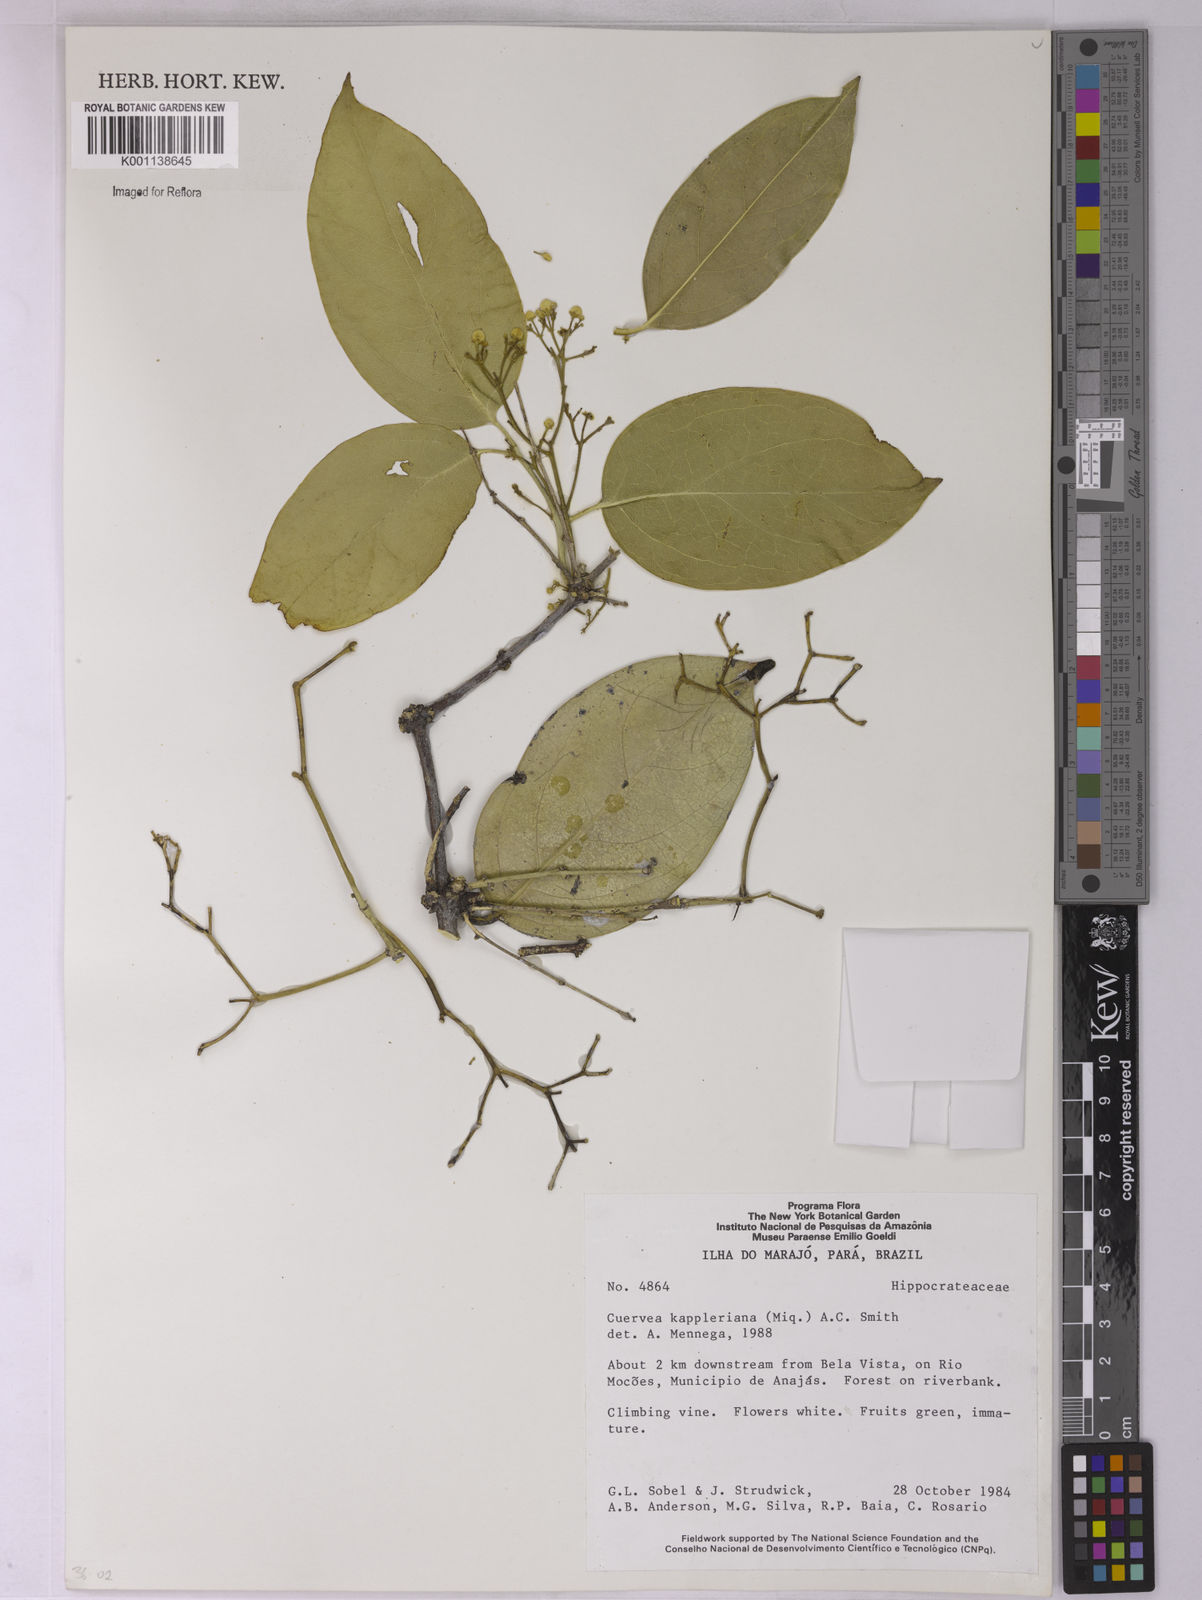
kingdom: Plantae
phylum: Tracheophyta
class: Magnoliopsida
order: Celastrales
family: Celastraceae
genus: Cuervea
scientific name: Cuervea kappleriana
